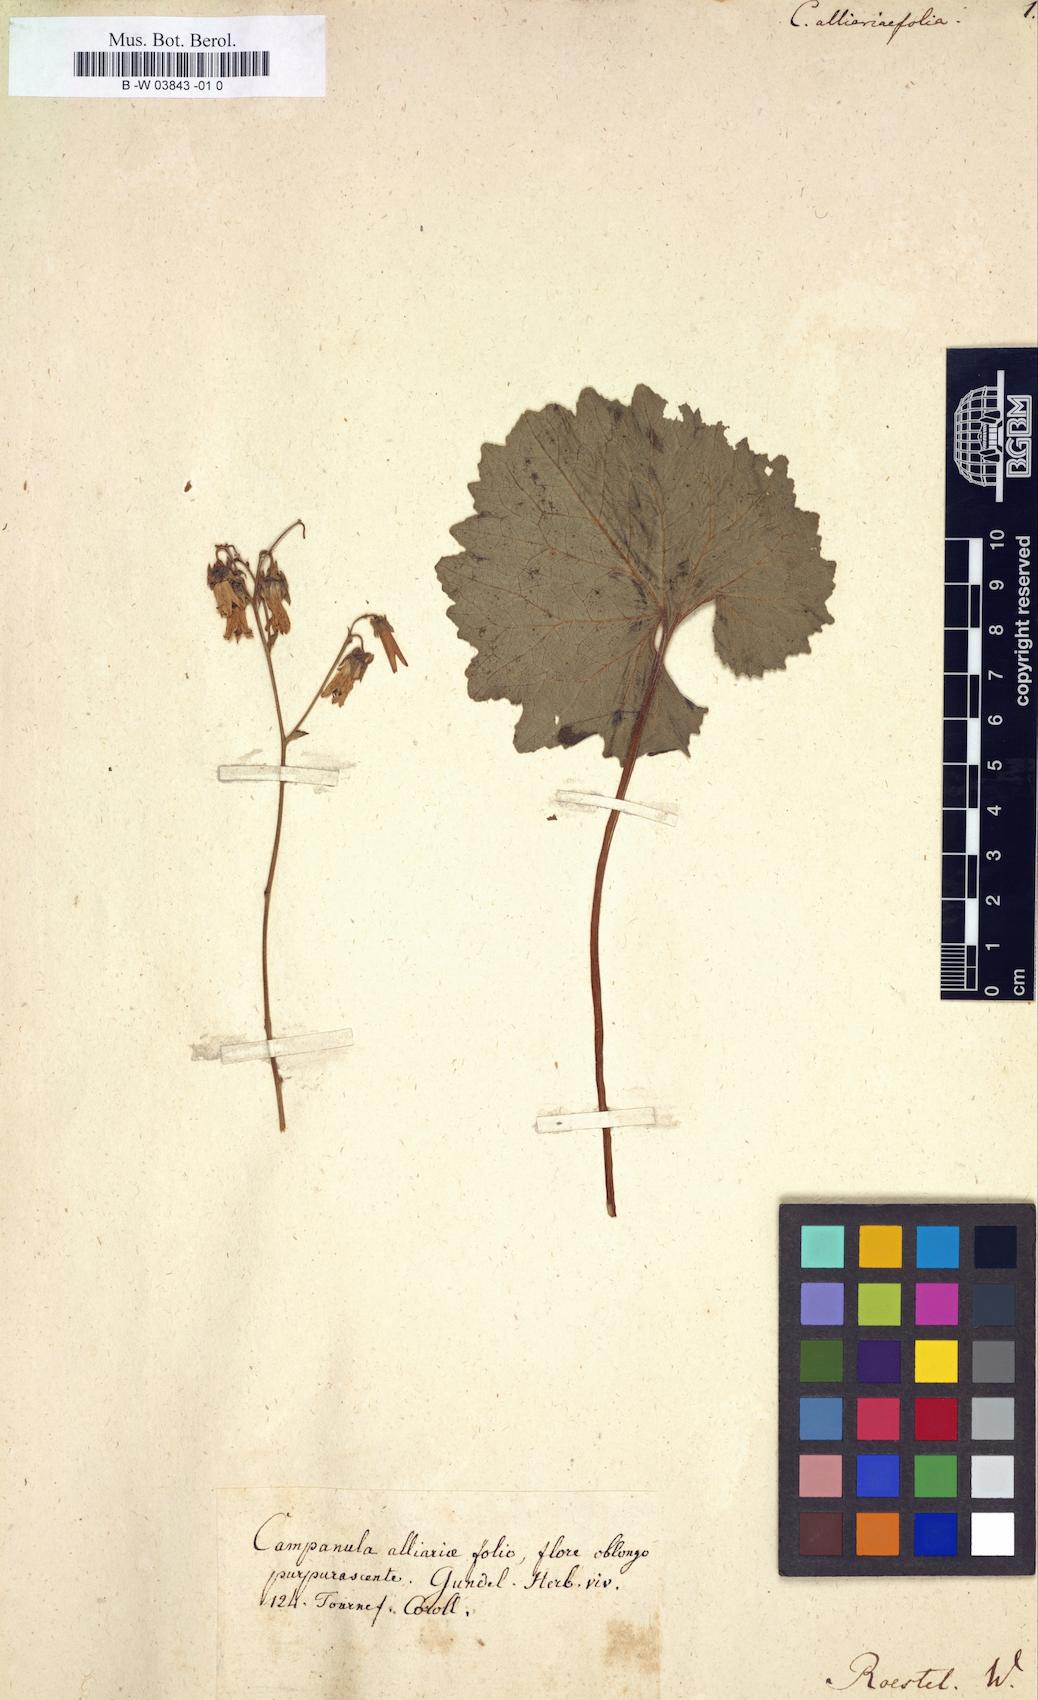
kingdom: Plantae
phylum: Tracheophyta
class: Magnoliopsida
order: Asterales
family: Campanulaceae
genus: Campanula
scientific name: Campanula alliariifolia
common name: Cornish bellflower
